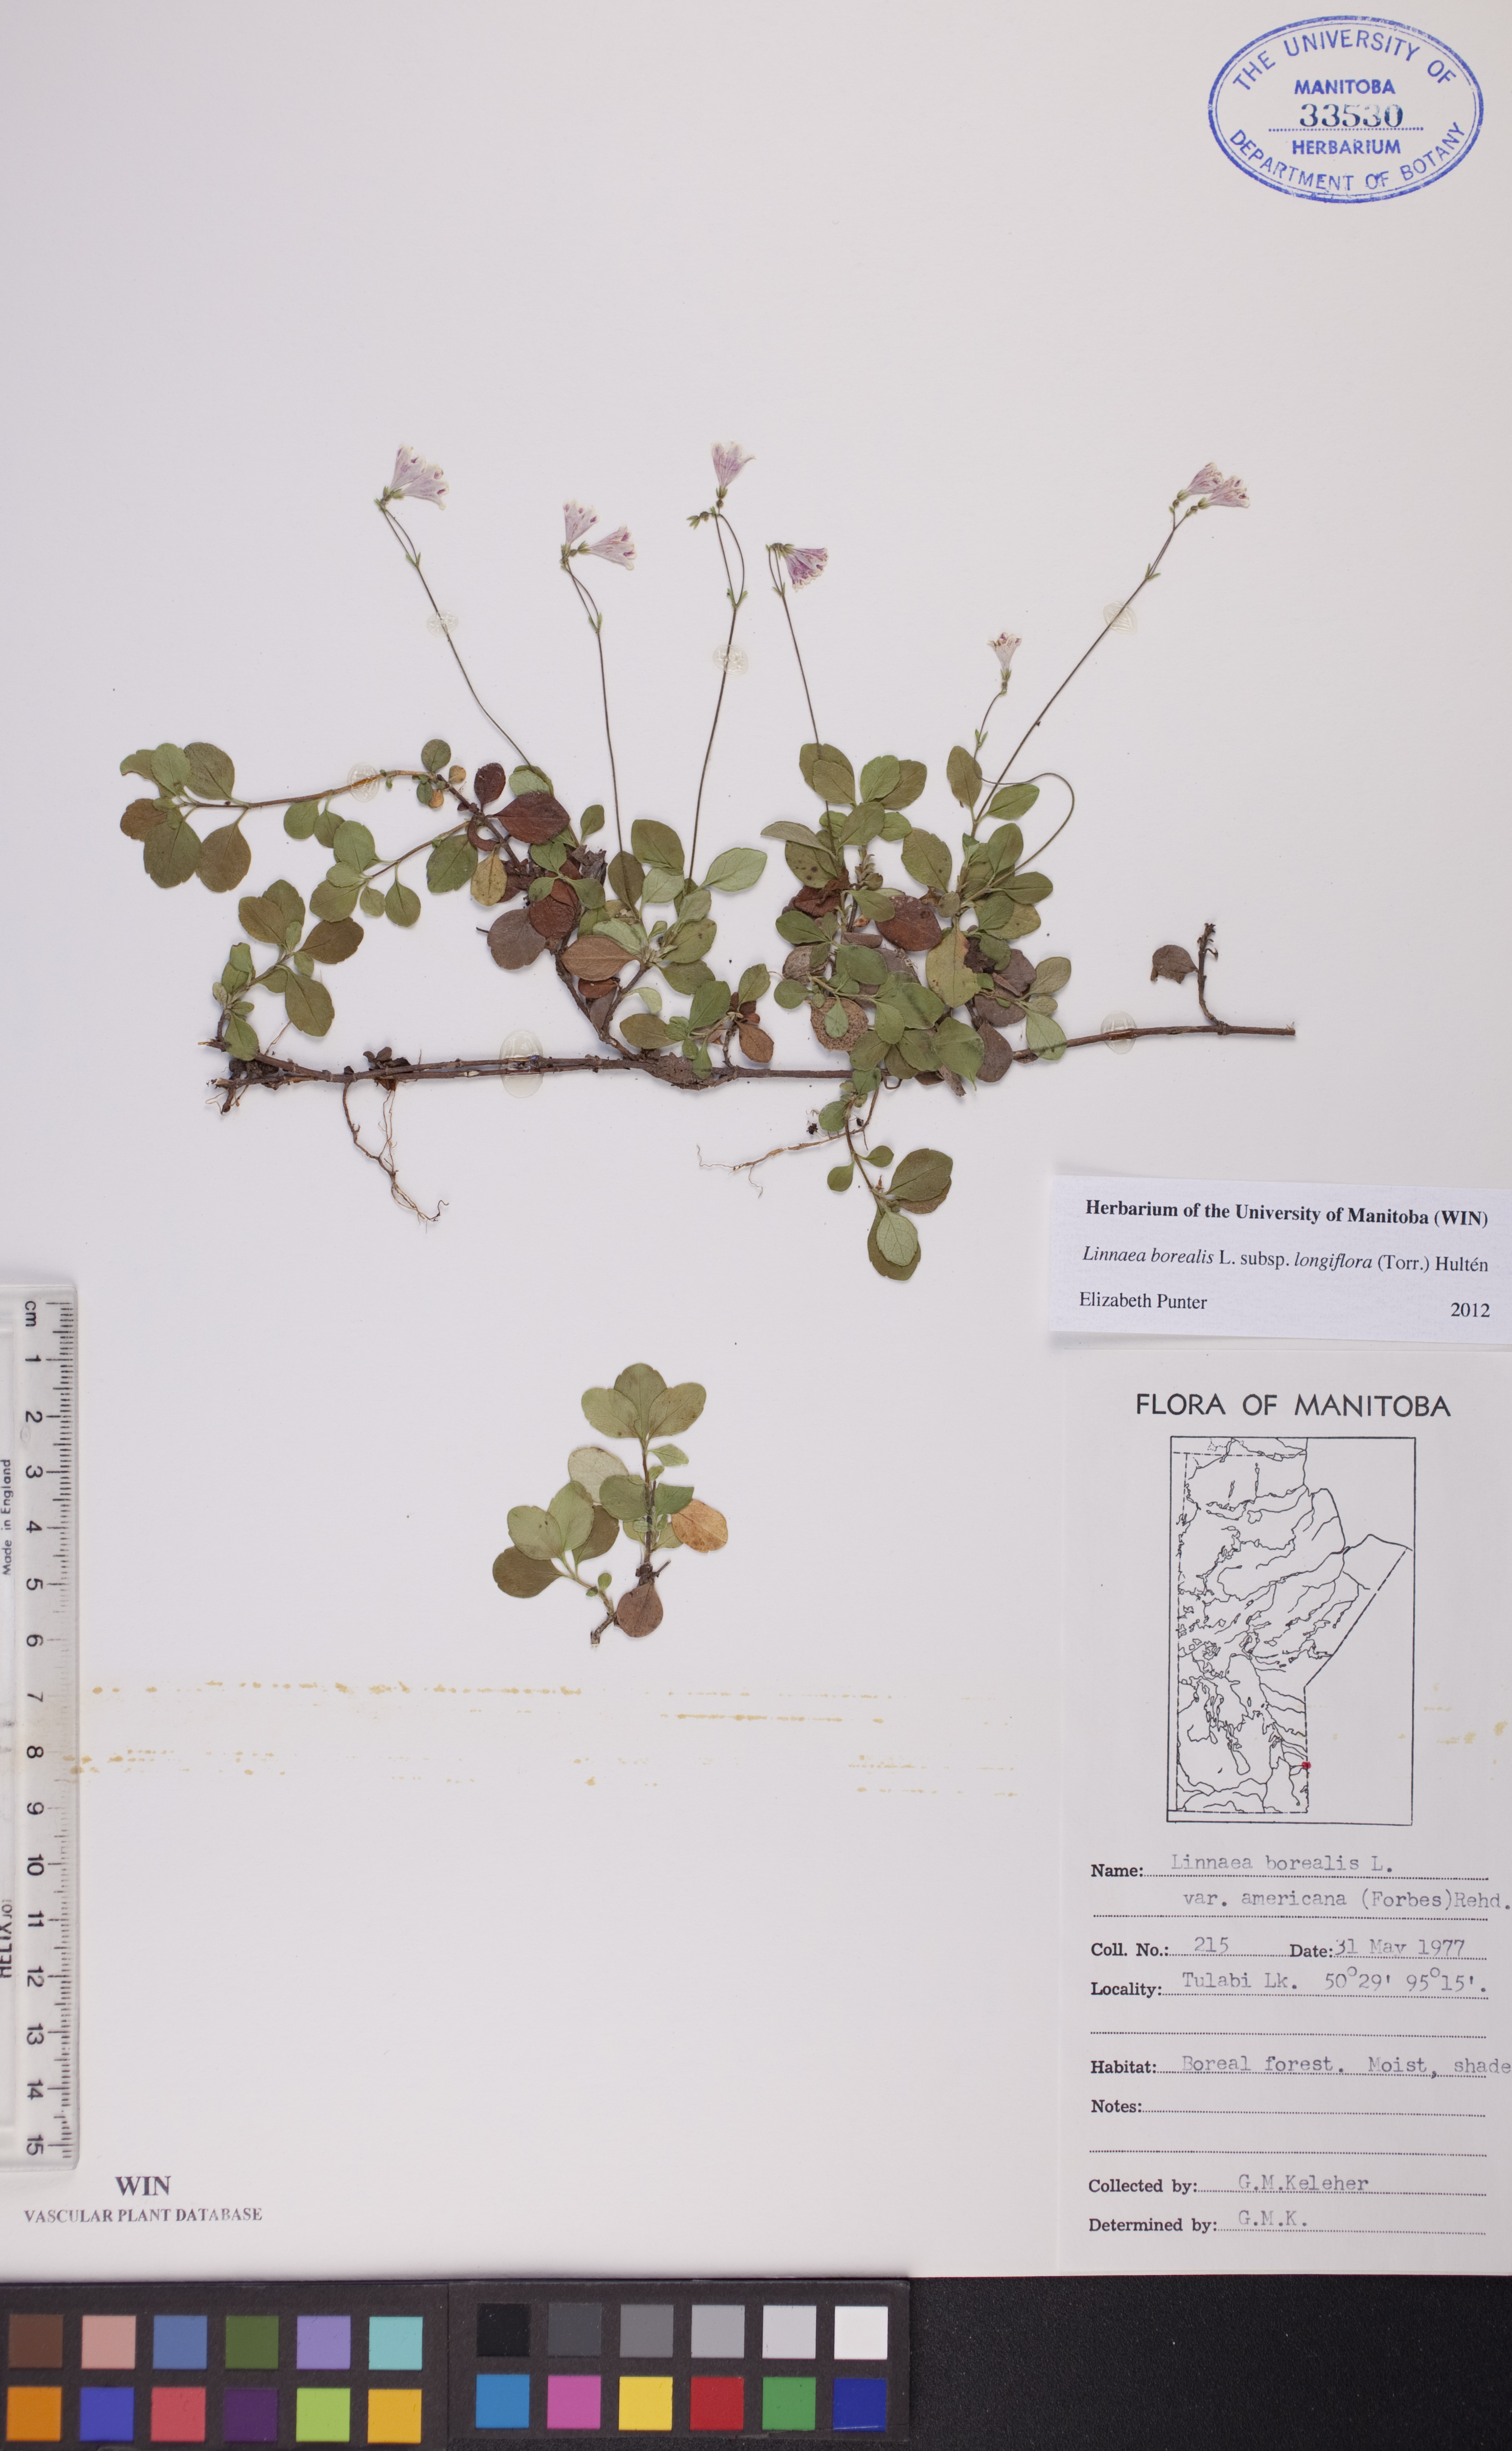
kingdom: Plantae
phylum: Tracheophyta
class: Magnoliopsida
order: Dipsacales
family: Caprifoliaceae
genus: Linnaea
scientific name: Linnaea borealis
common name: Twinflower
